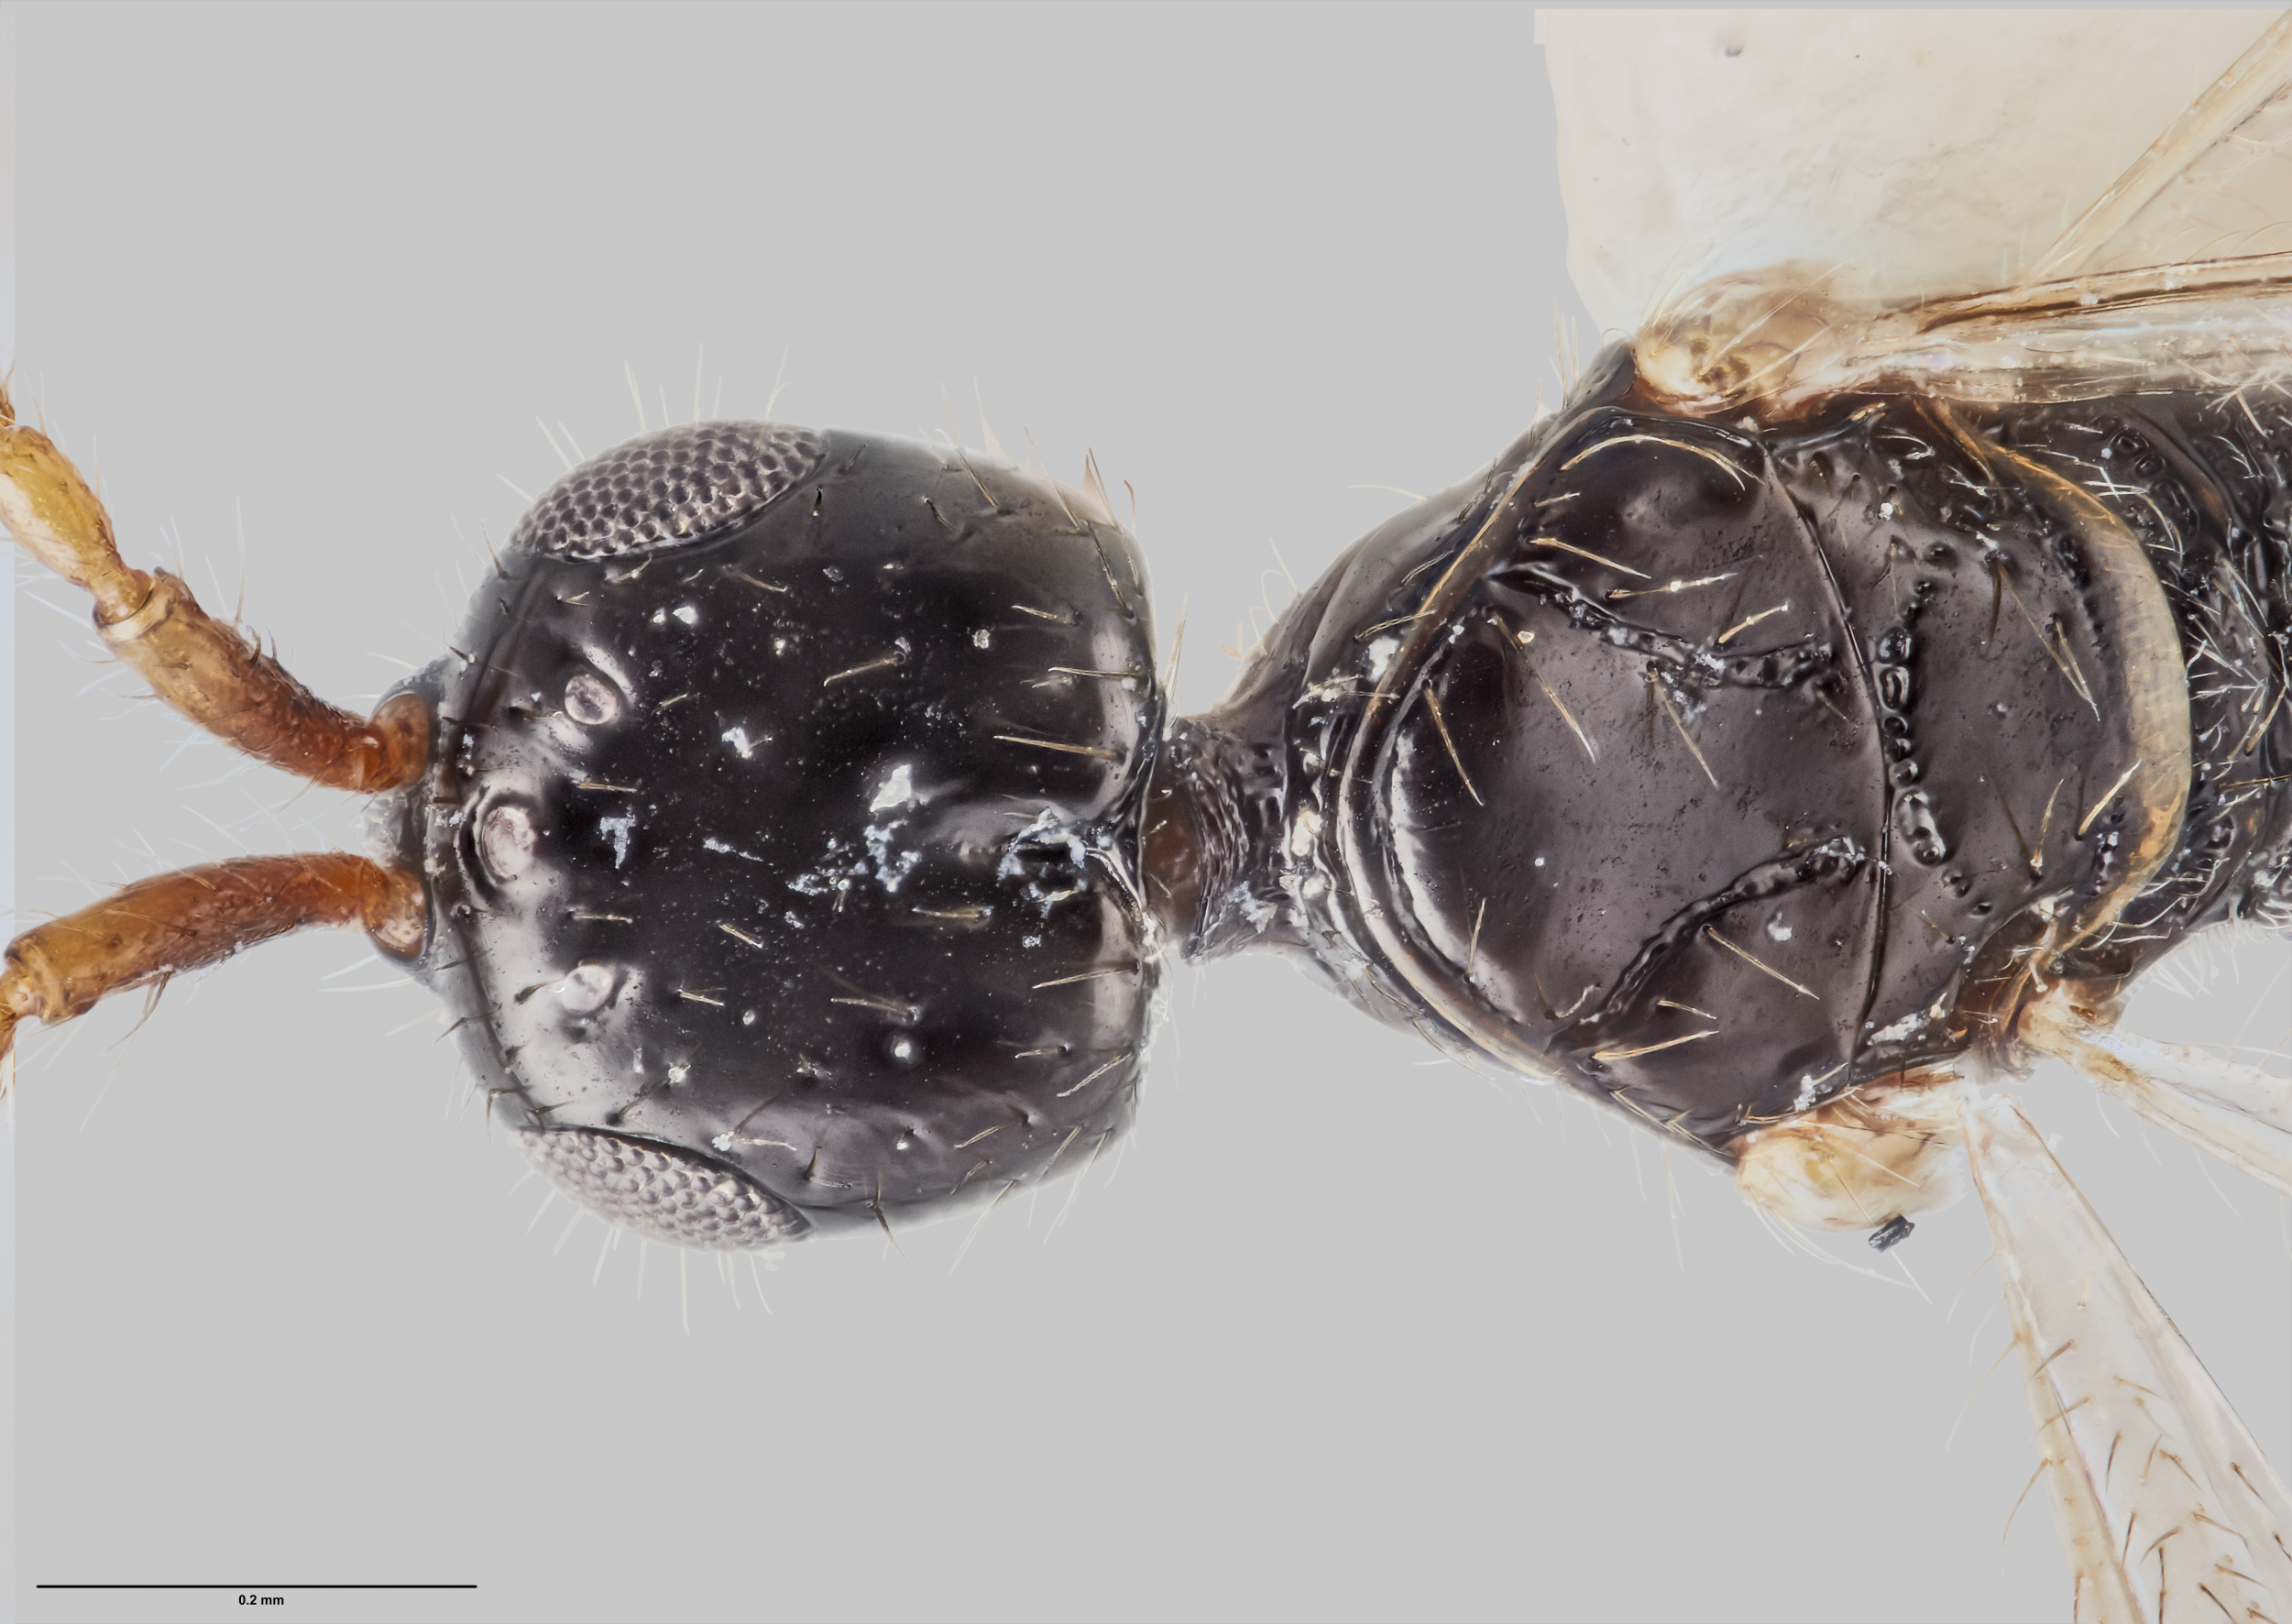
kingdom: Animalia
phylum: Arthropoda
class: Insecta
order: Hymenoptera
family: Diapriidae
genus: Pentapria
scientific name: Pentapria
